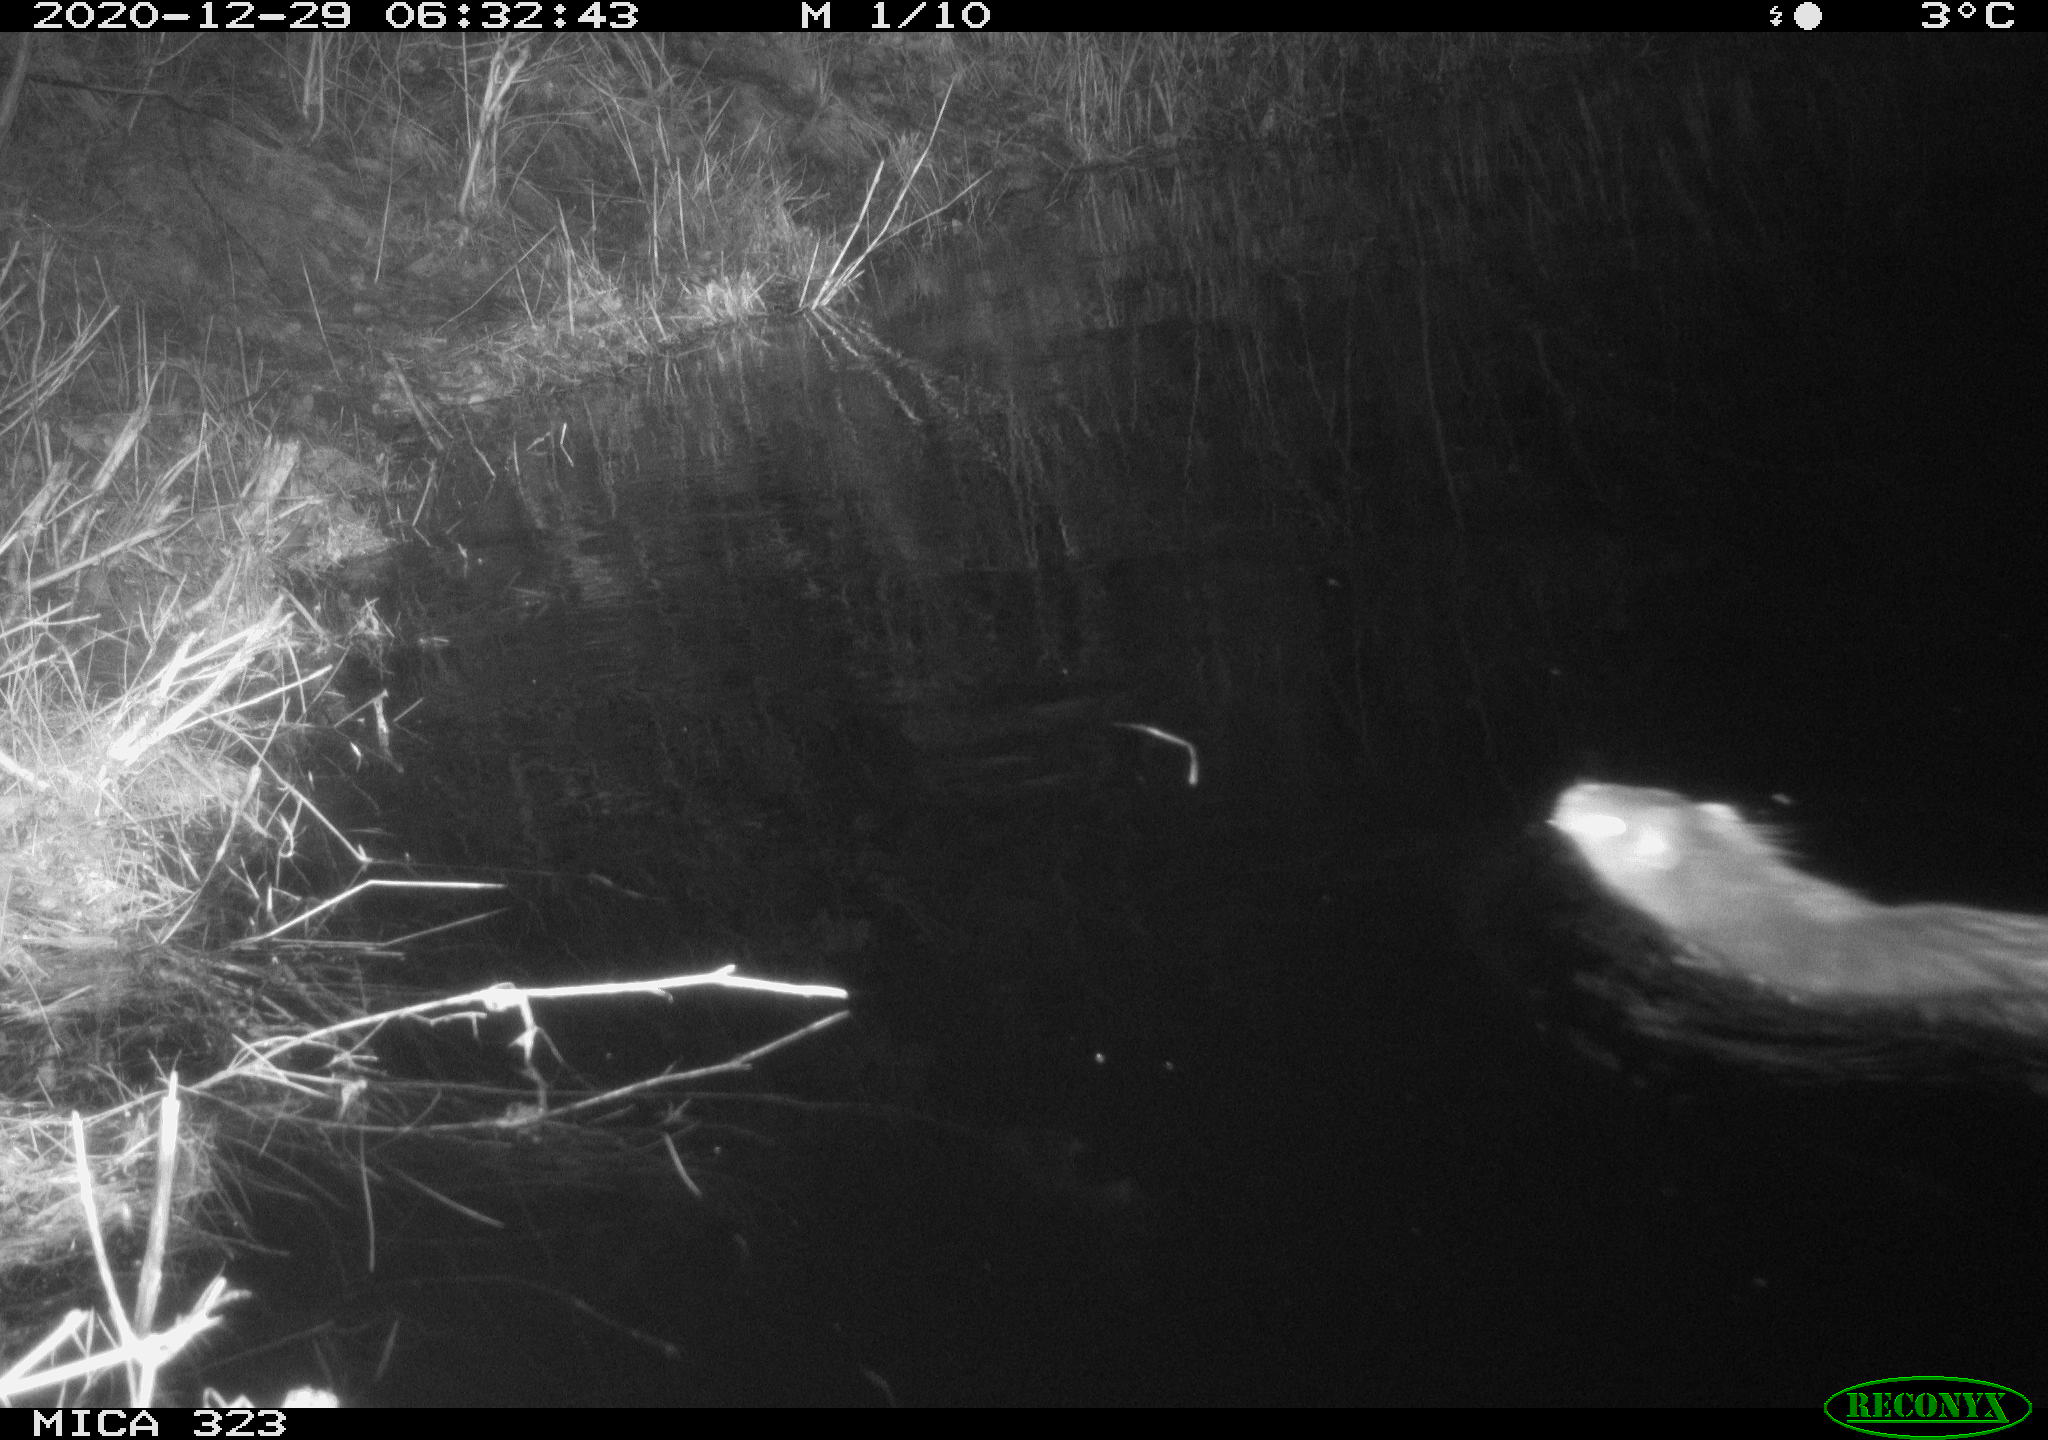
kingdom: Animalia
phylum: Chordata
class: Mammalia
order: Rodentia
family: Myocastoridae
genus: Myocastor
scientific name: Myocastor coypus
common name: Coypu
